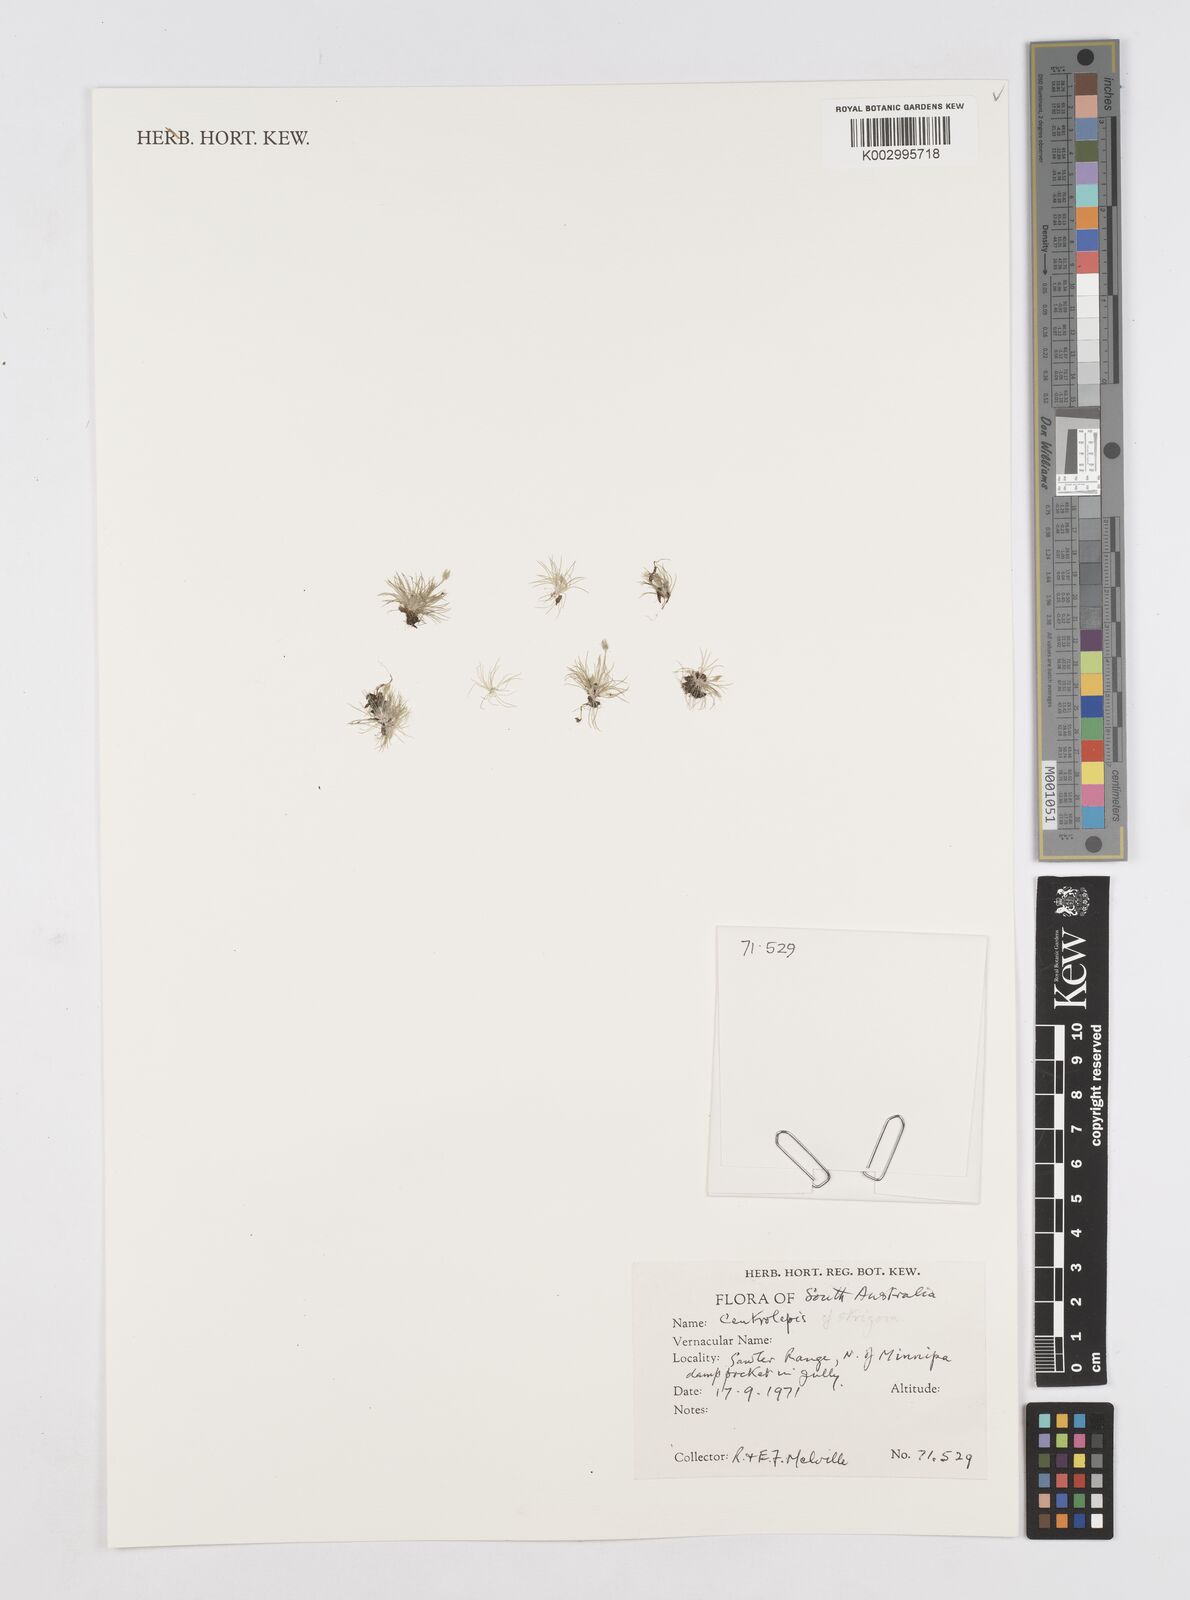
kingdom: Plantae
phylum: Tracheophyta
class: Liliopsida
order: Poales
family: Restionaceae
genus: Centrolepis
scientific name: Centrolepis strigosa
